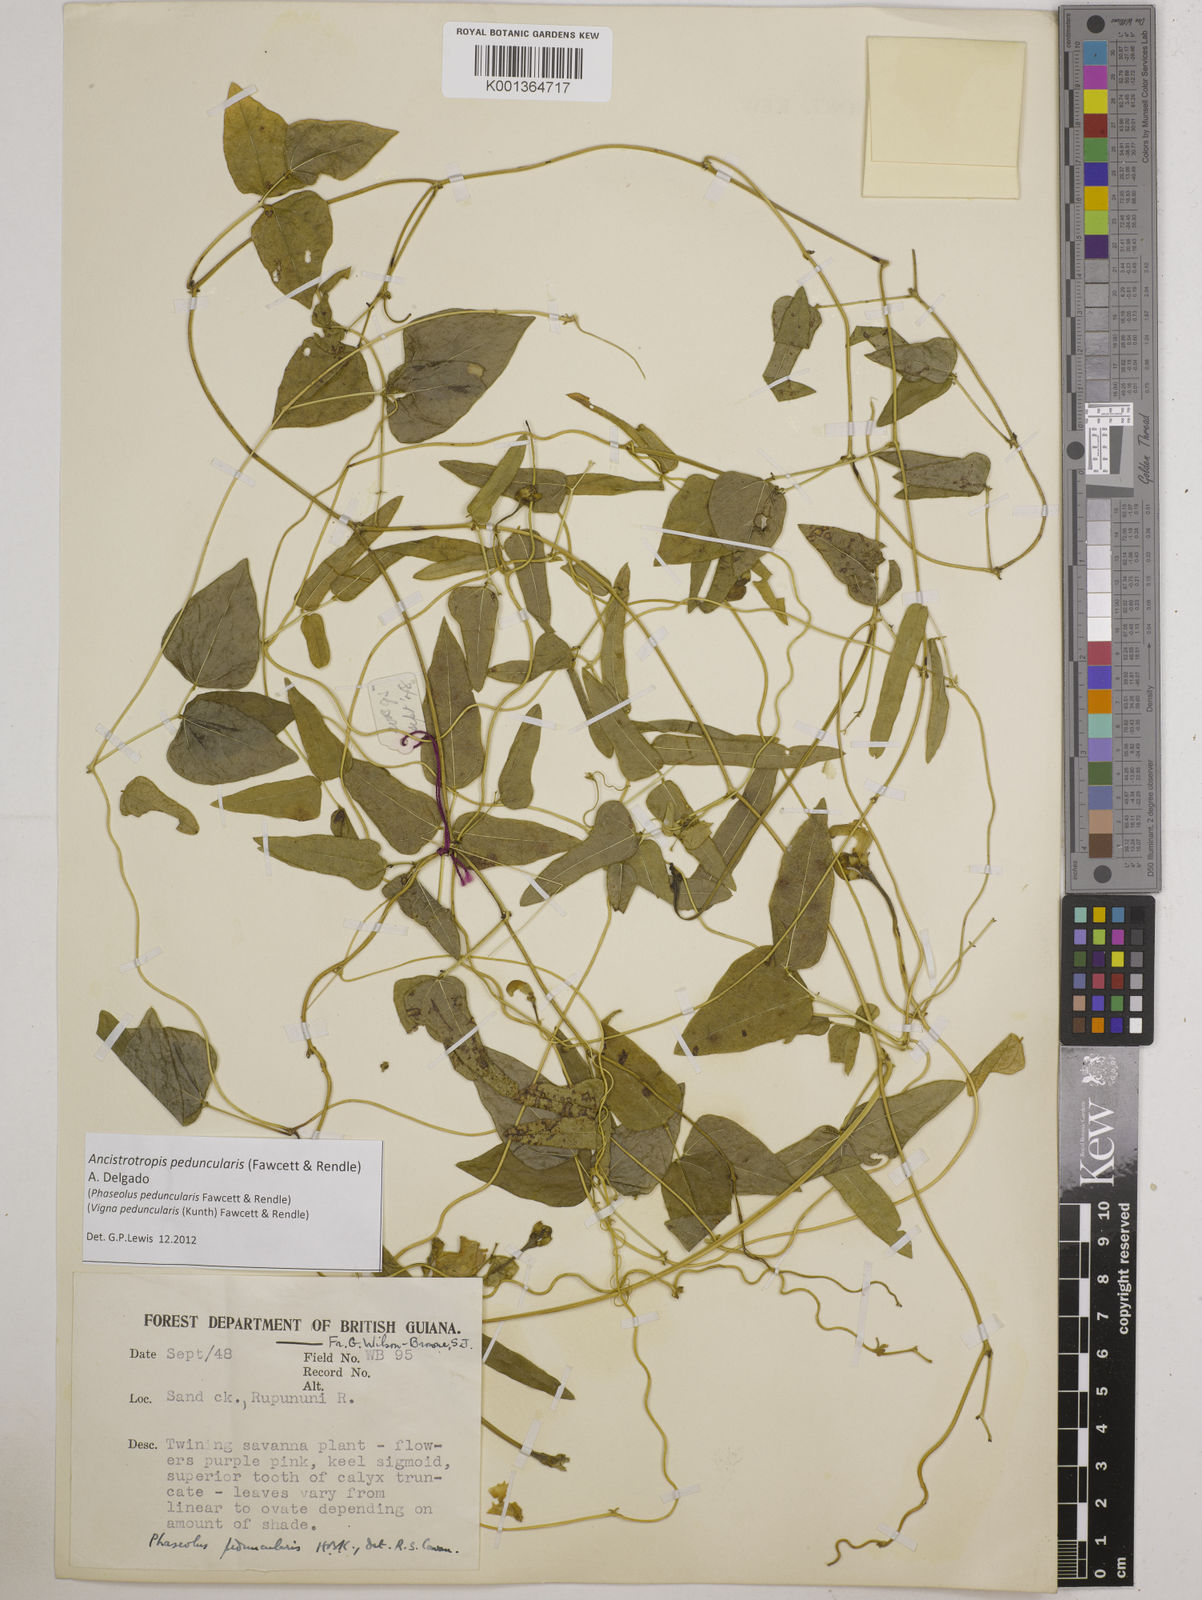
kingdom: Plantae
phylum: Tracheophyta
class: Magnoliopsida
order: Fabales
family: Fabaceae
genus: Ancistrotropis
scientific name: Ancistrotropis peduncularis
